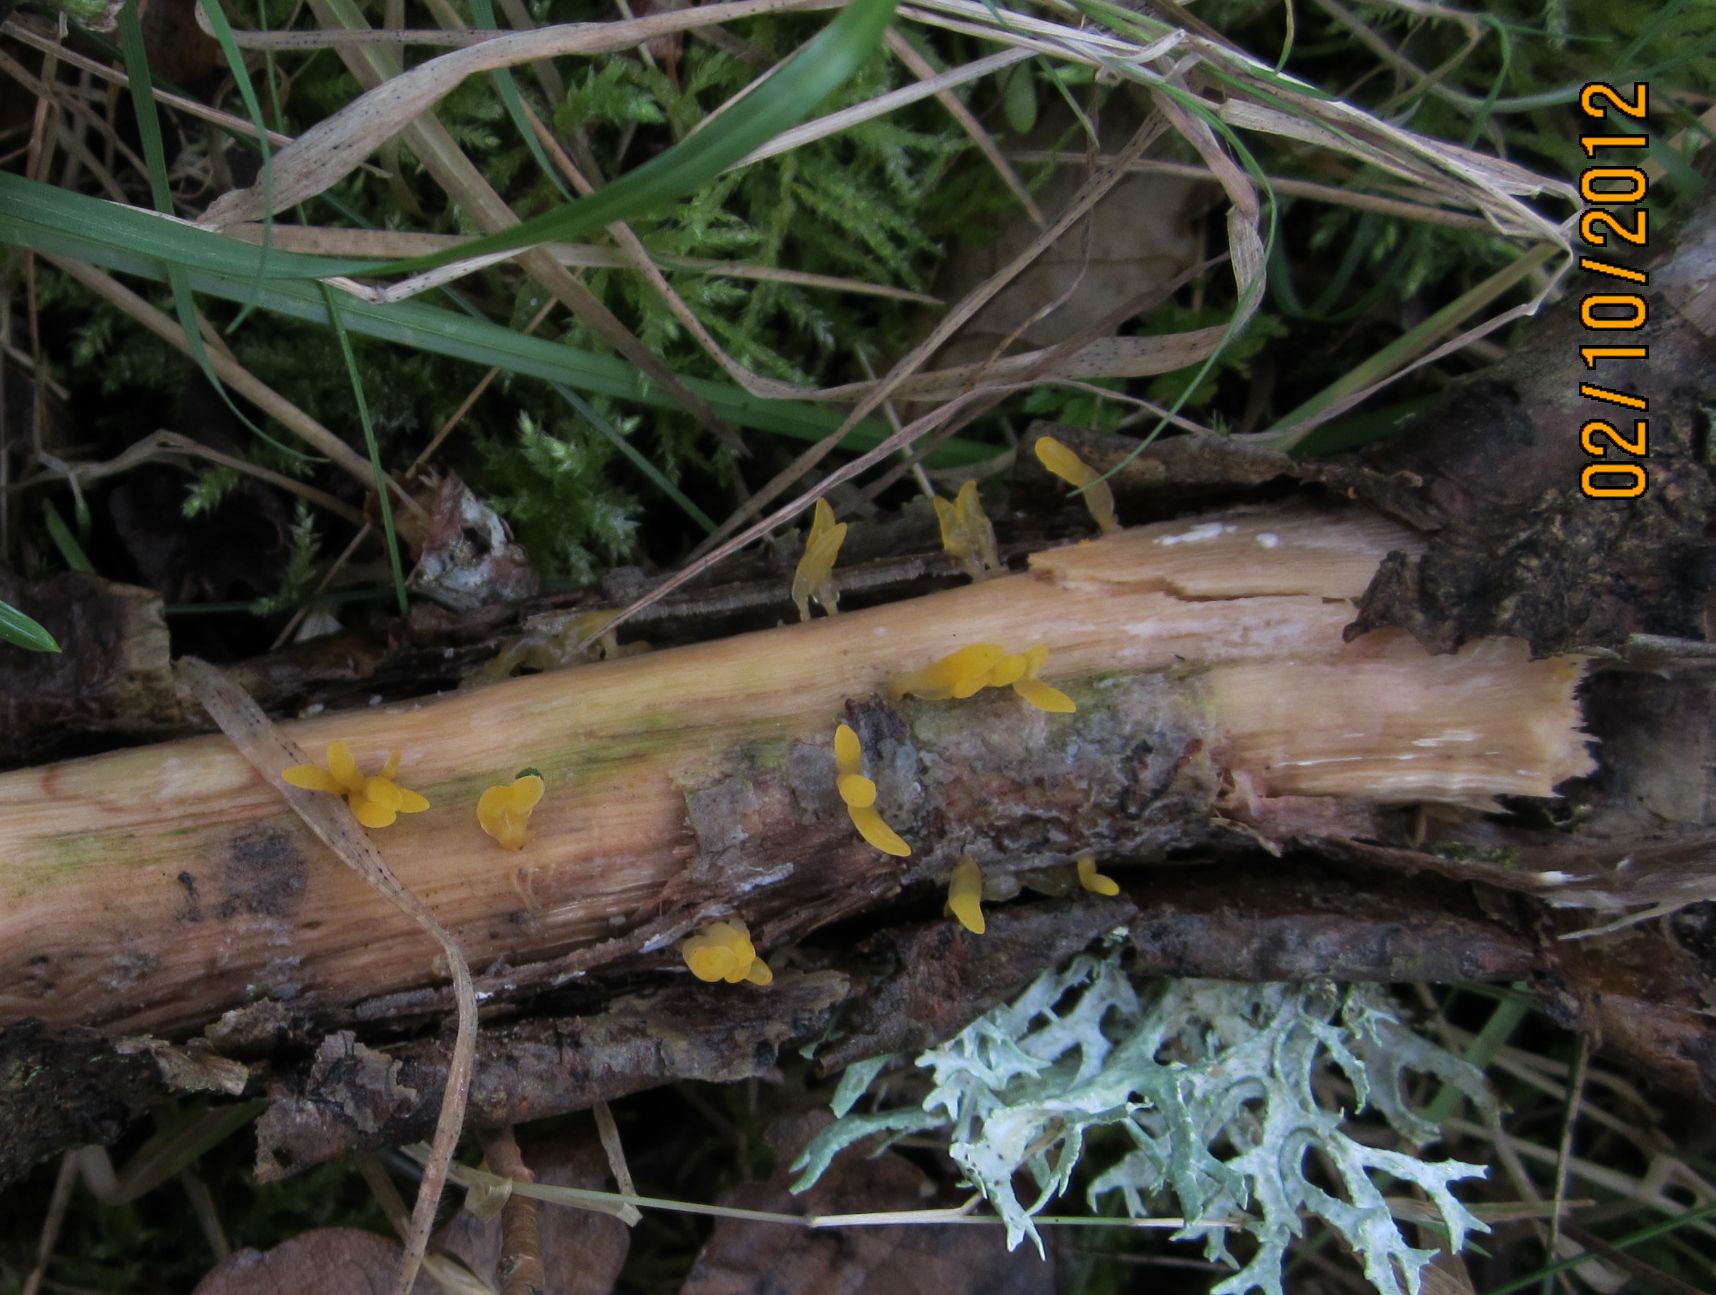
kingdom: Fungi
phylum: Basidiomycota
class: Dacrymycetes
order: Dacrymycetales
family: Dacrymycetaceae
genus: Calocera
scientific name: Calocera cornea
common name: liden guldgaffel
